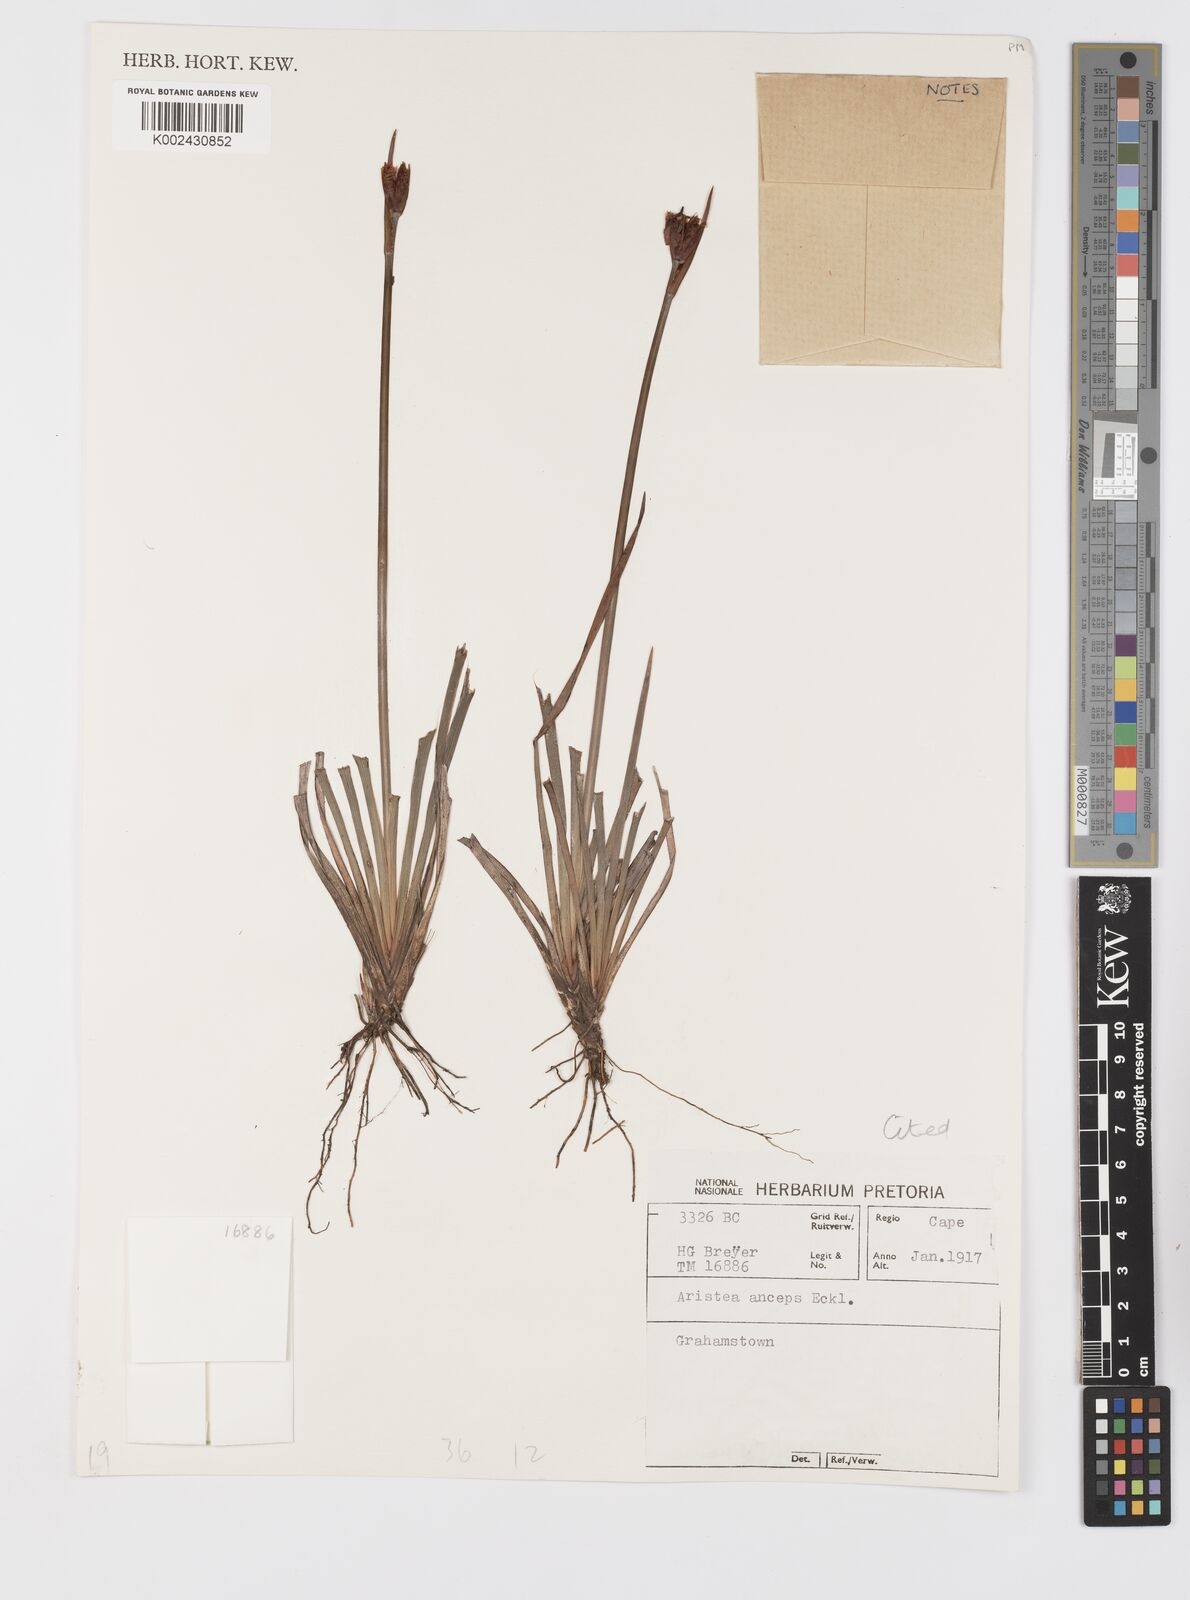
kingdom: Plantae
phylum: Tracheophyta
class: Liliopsida
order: Asparagales
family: Iridaceae
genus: Aristea
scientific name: Aristea anceps
